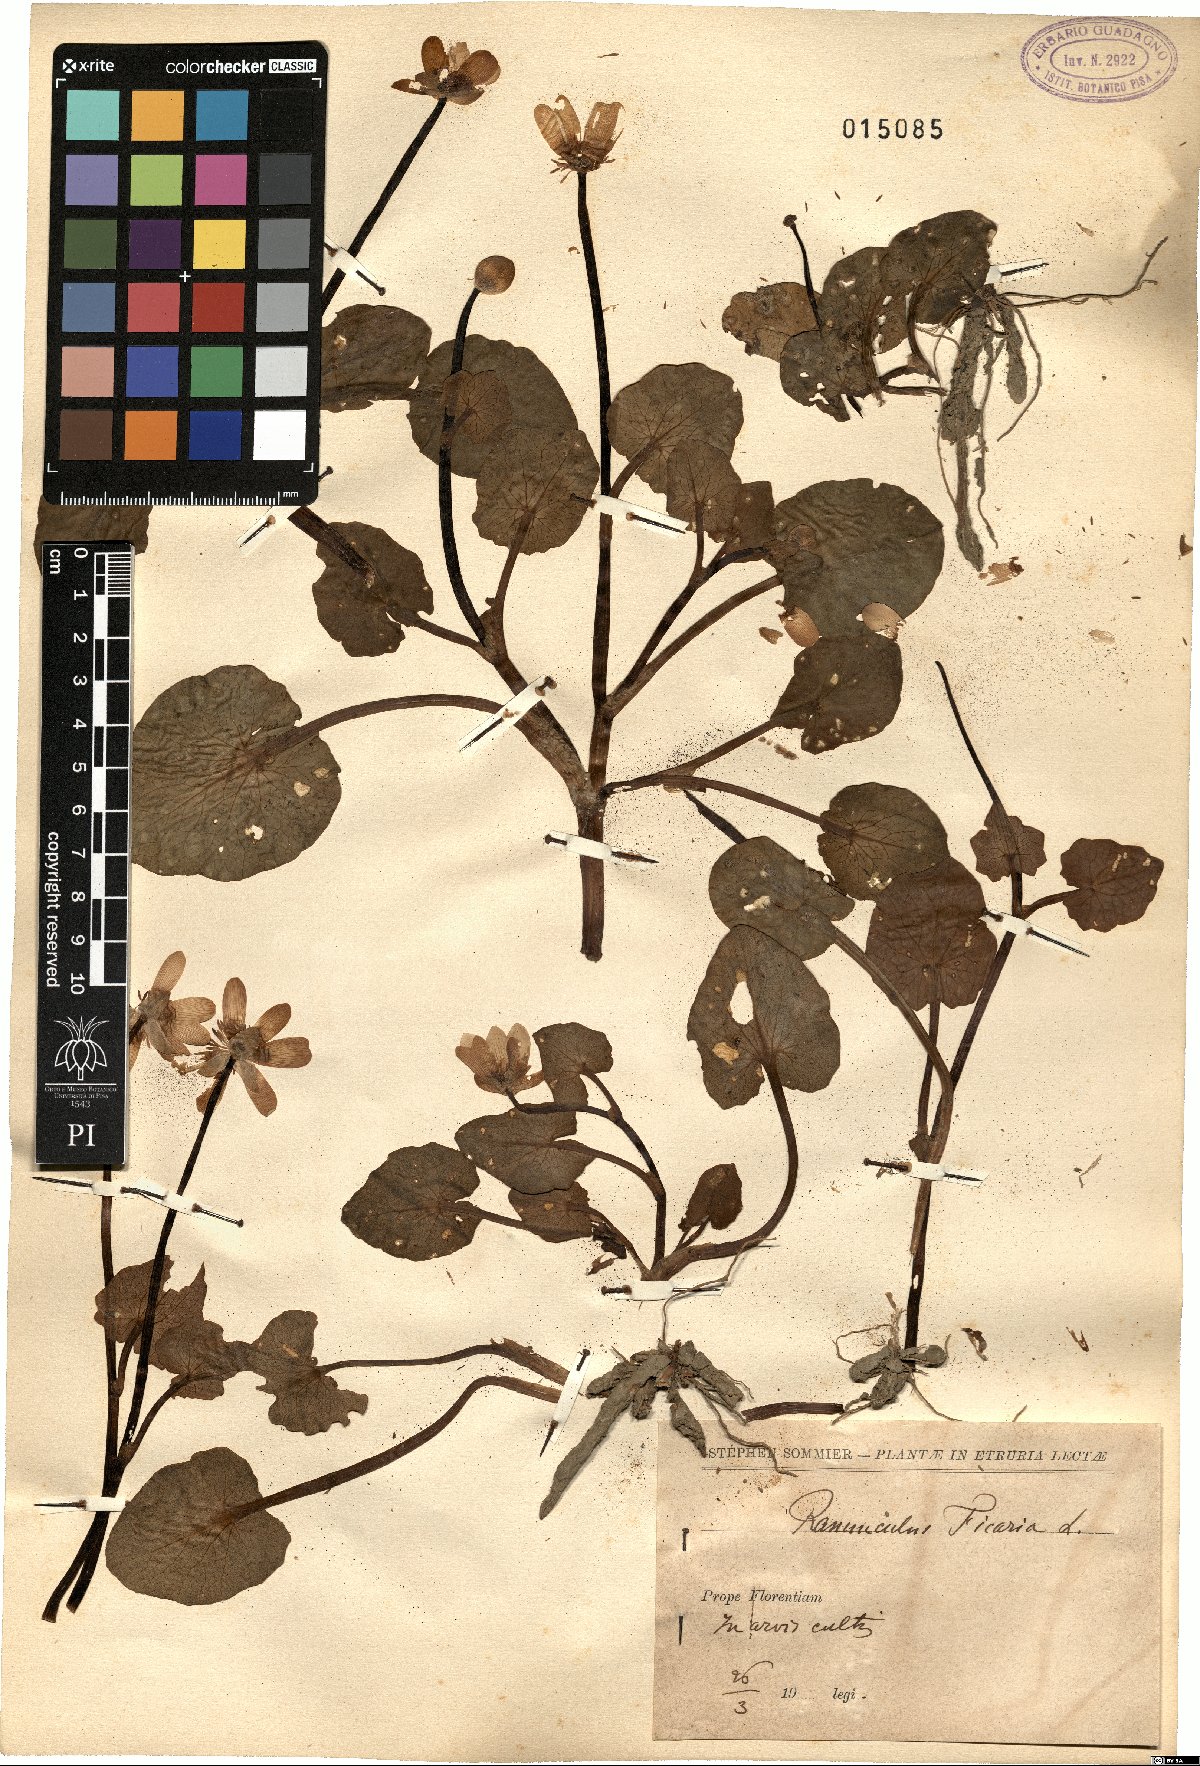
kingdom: Plantae
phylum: Tracheophyta
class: Magnoliopsida
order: Ranunculales
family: Ranunculaceae
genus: Ficaria
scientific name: Ficaria verna
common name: Lesser celandine
